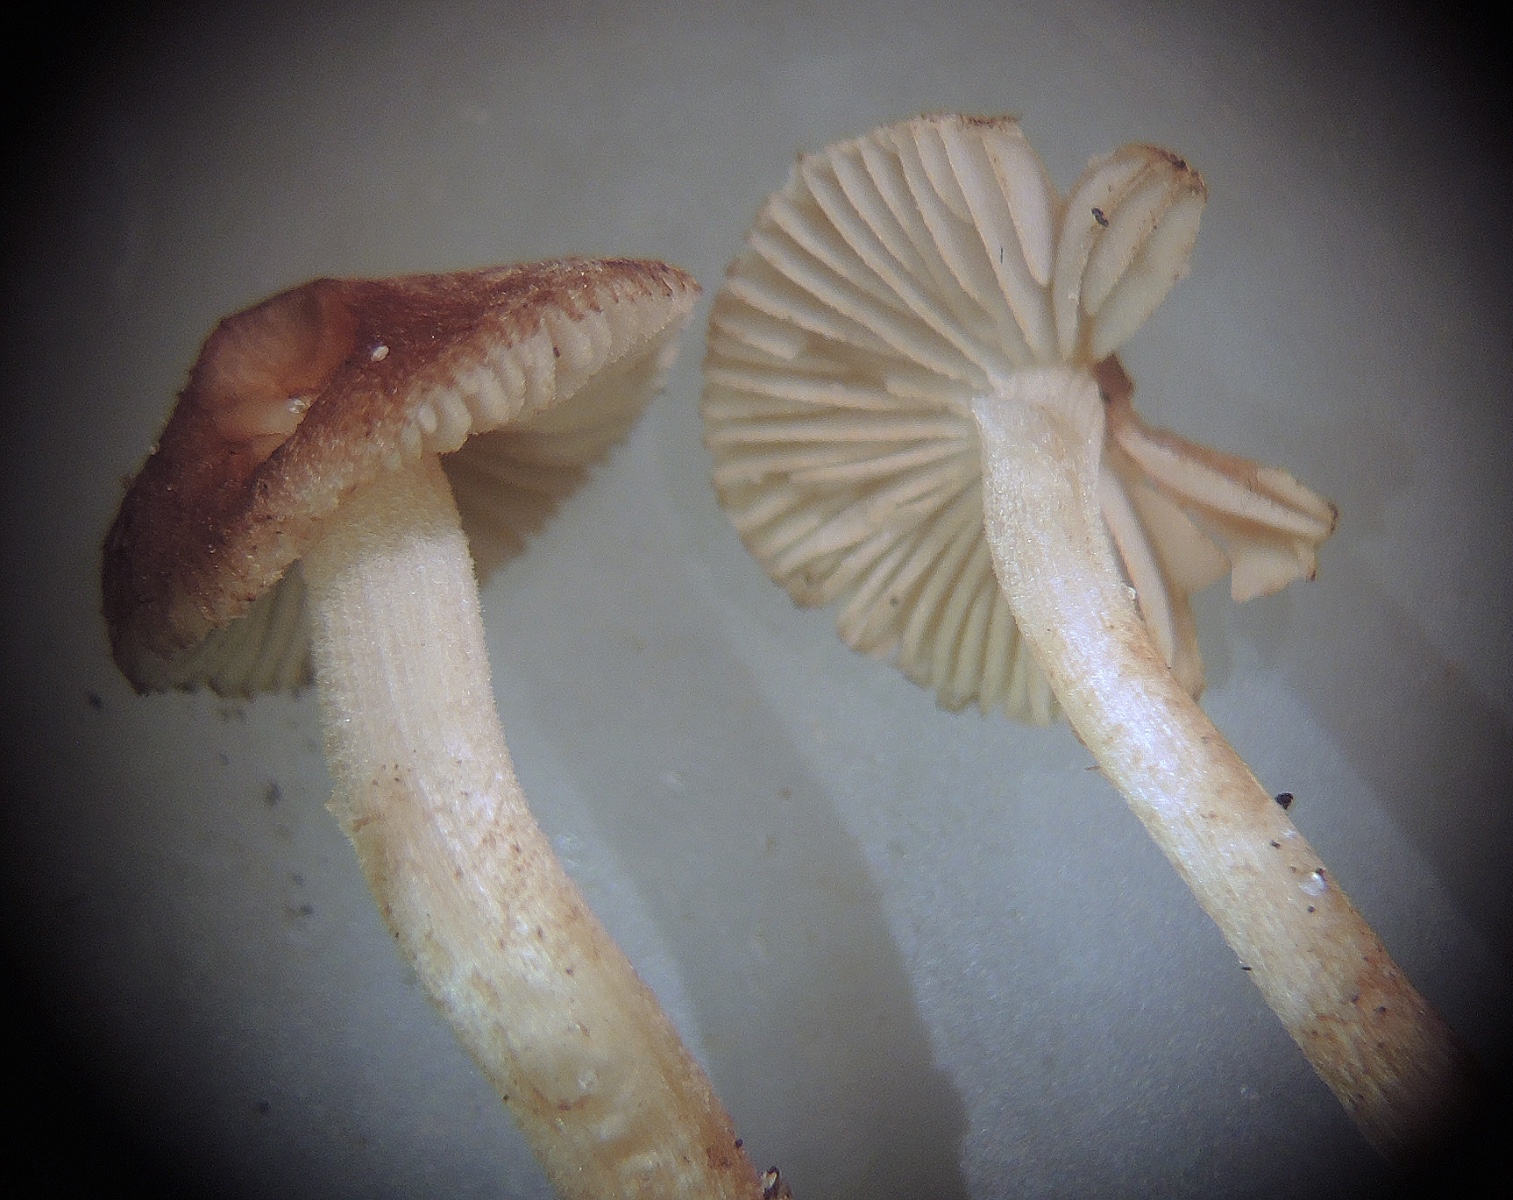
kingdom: Fungi
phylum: Basidiomycota
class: Agaricomycetes
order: Agaricales
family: Inocybaceae
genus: Inocybe
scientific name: Inocybe
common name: trævlhat
